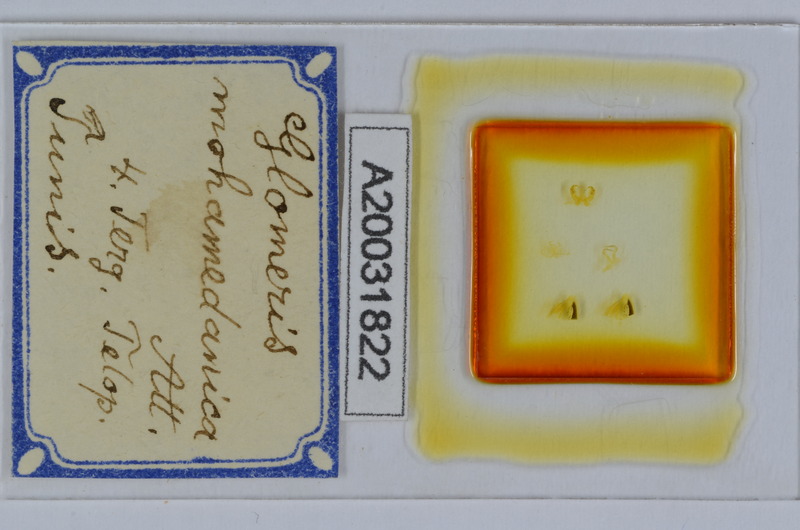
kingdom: Animalia
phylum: Arthropoda
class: Diplopoda
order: Glomerida
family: Glomeridae
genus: Glomeris
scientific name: Glomeris mohamedanica
